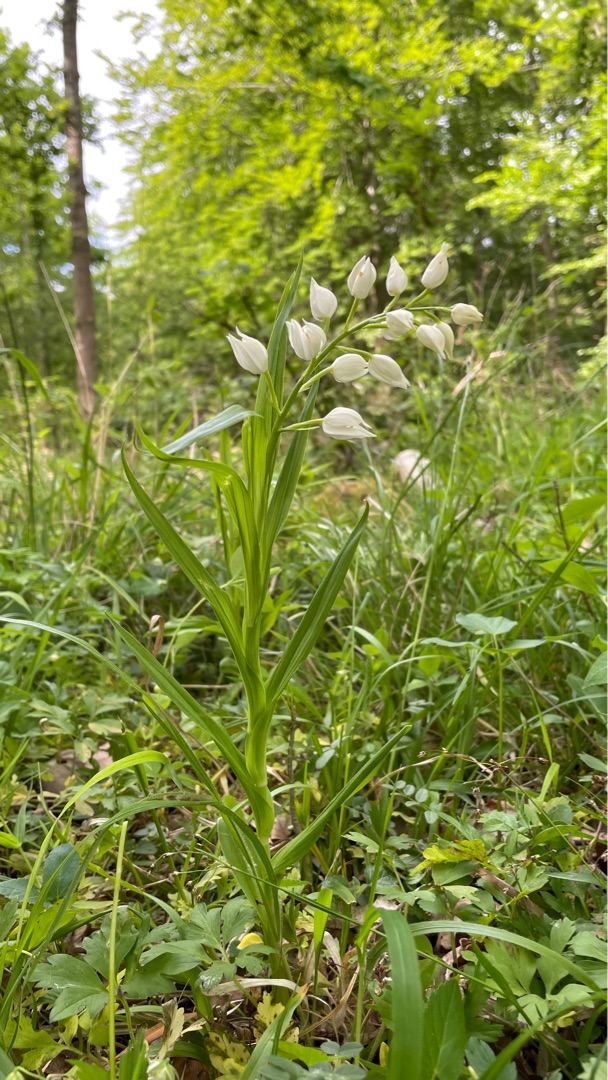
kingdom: Plantae
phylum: Tracheophyta
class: Liliopsida
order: Asparagales
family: Orchidaceae
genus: Cephalanthera
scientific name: Cephalanthera longifolia
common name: Sværd-skovlilje
